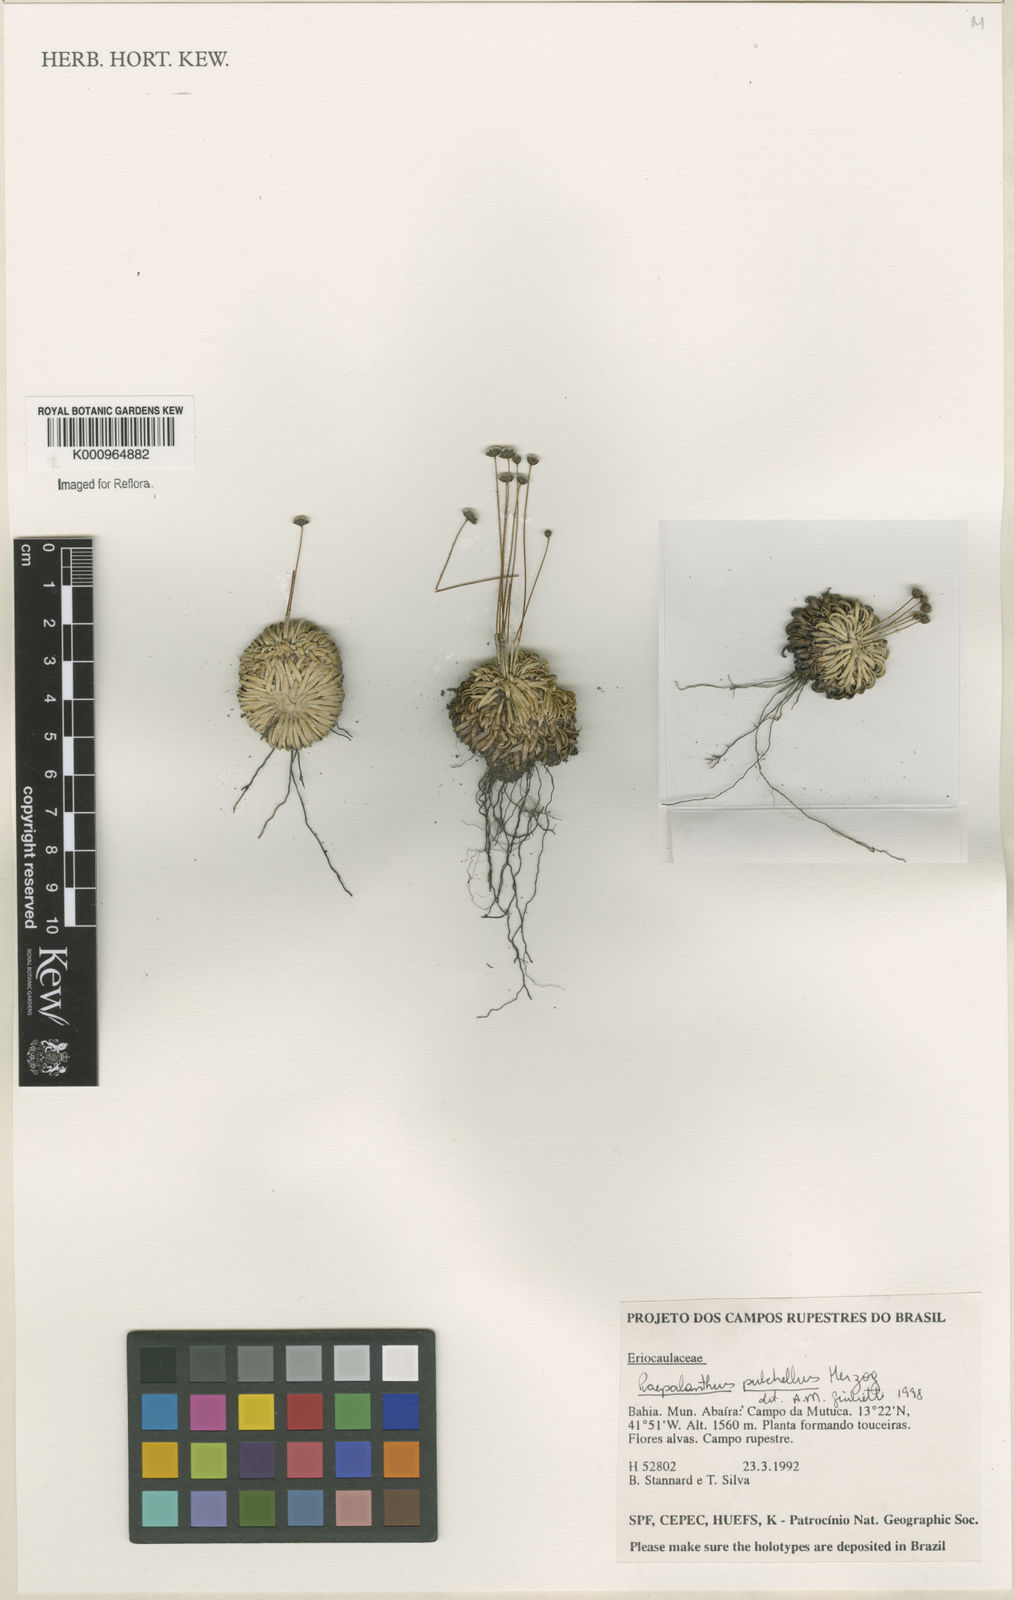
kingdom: Plantae
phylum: Tracheophyta
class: Liliopsida
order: Poales
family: Eriocaulaceae
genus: Paepalanthus
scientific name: Paepalanthus pulchellus
